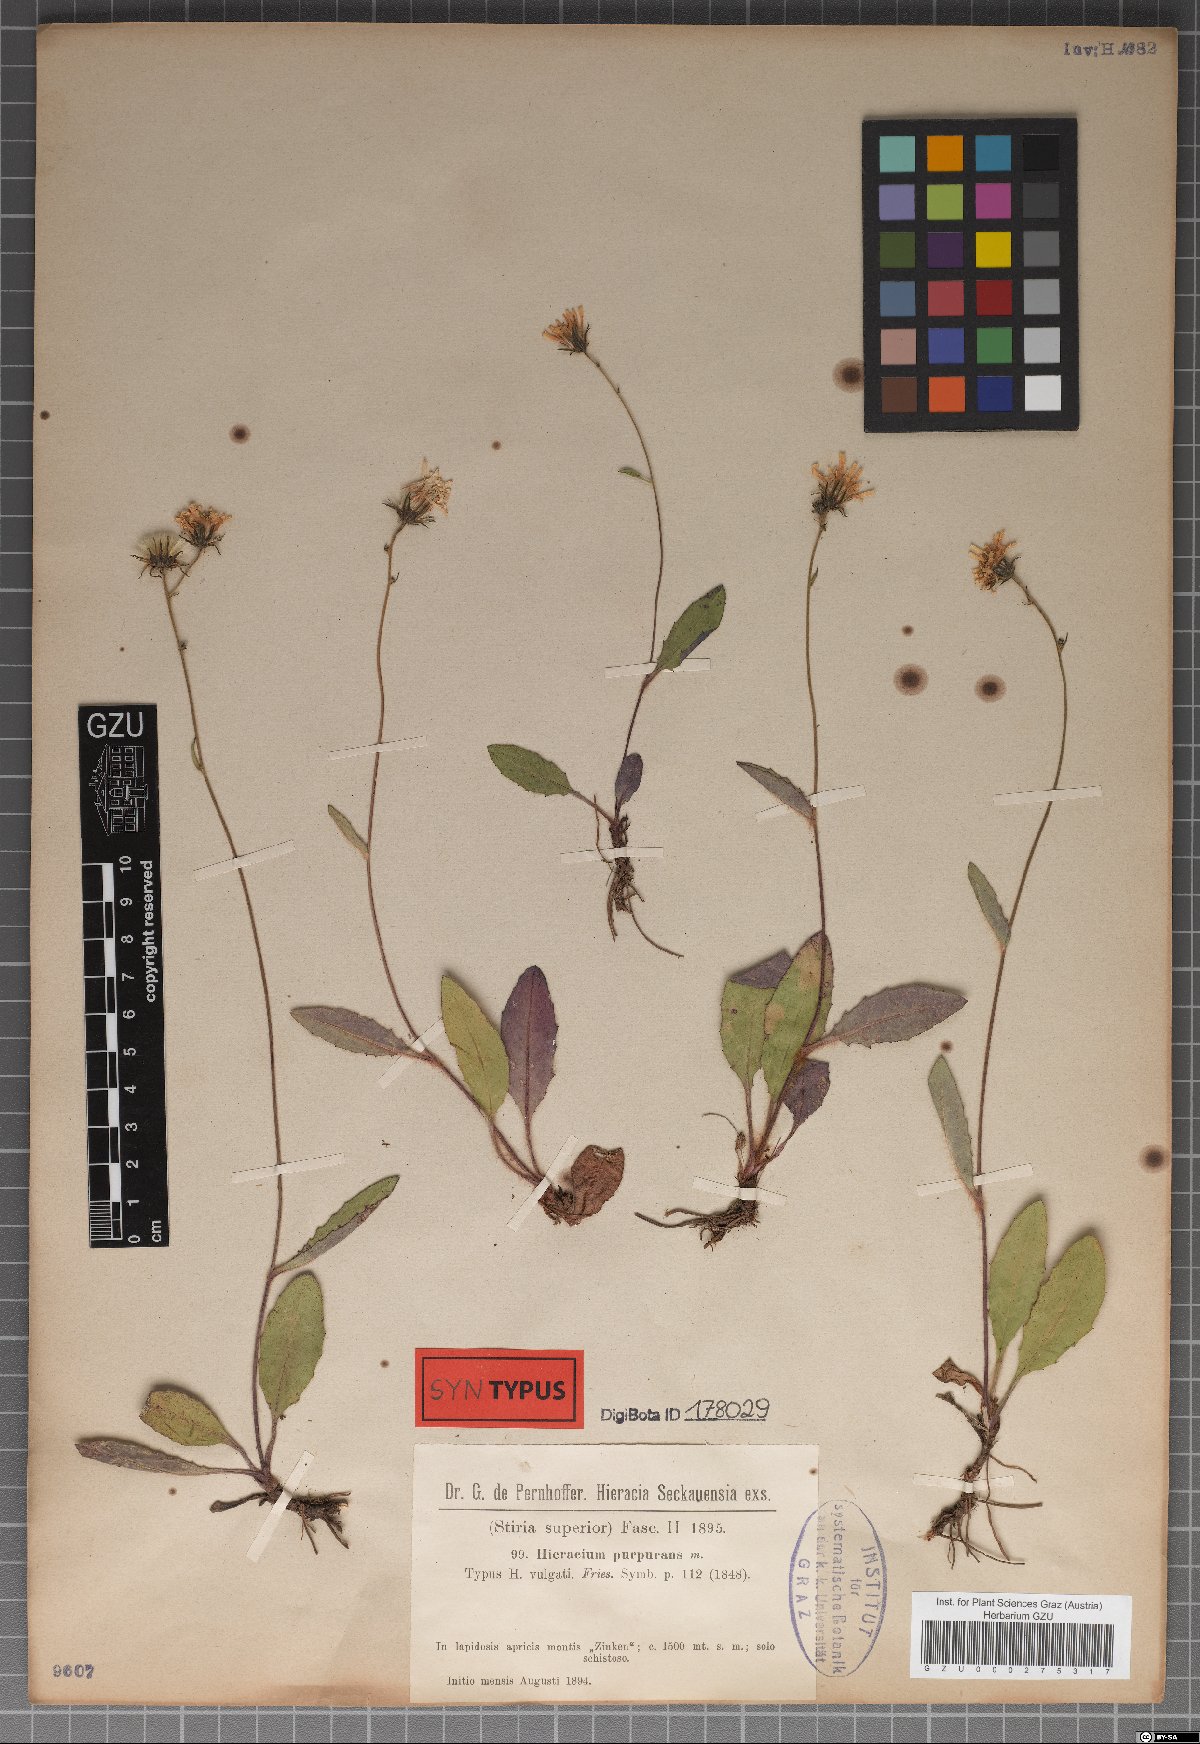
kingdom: Plantae
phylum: Tracheophyta
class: Magnoliopsida
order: Asterales
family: Asteraceae
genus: Hieracium
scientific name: Hieracium purpurans
